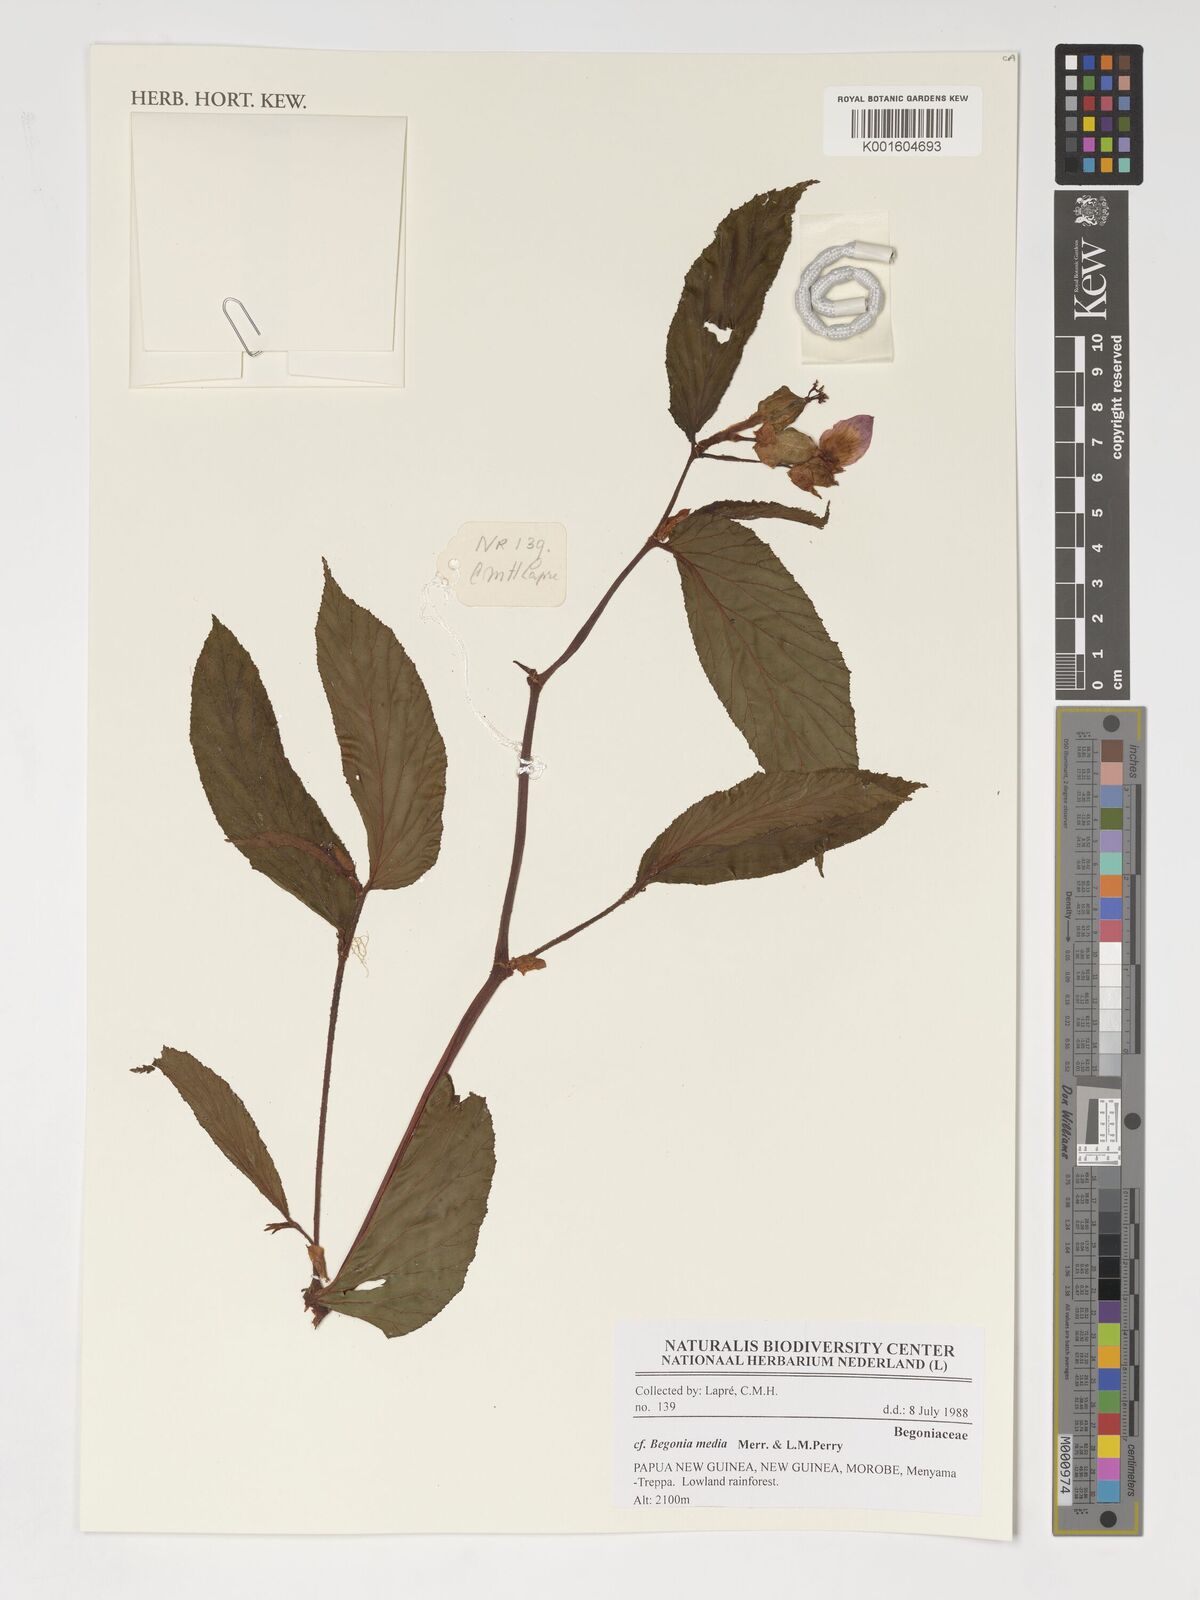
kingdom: Plantae
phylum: Tracheophyta
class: Magnoliopsida
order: Cucurbitales
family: Begoniaceae
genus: Begonia
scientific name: Begonia media
